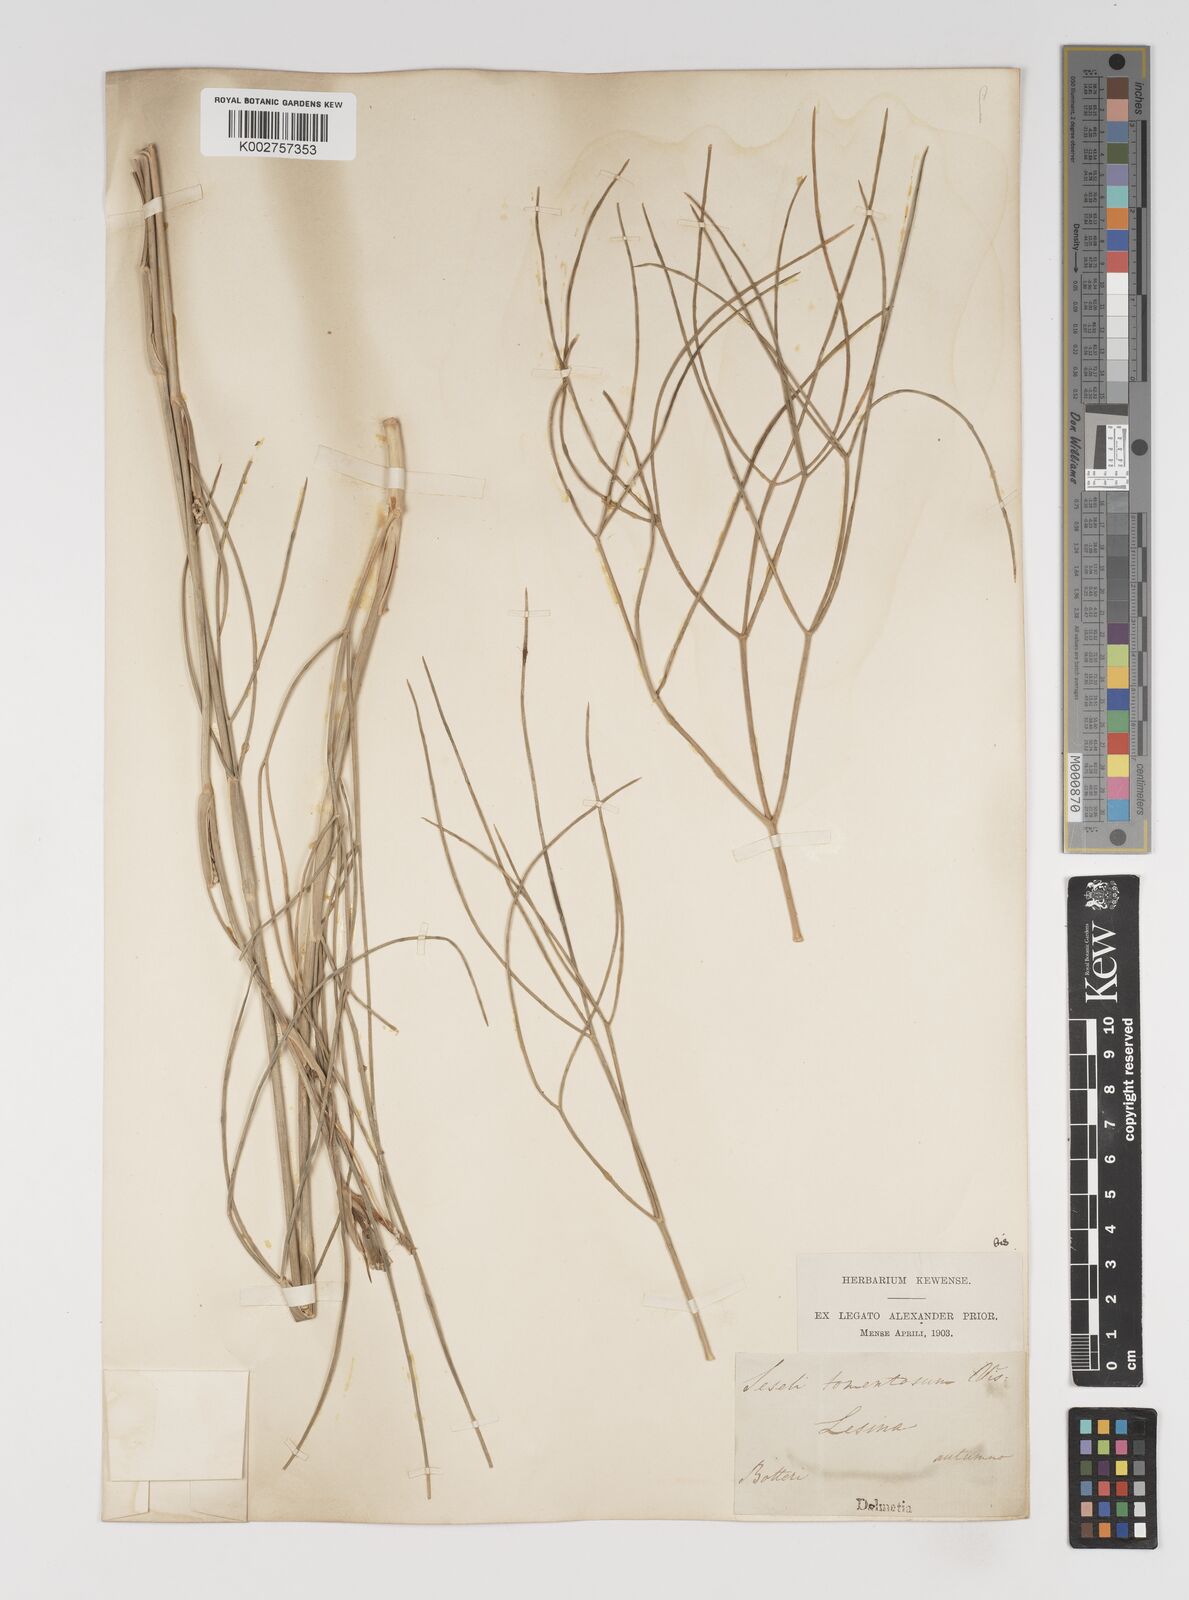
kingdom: Plantae
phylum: Tracheophyta
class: Magnoliopsida
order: Apiales
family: Apiaceae
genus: Cyathoselinum
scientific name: Cyathoselinum tomentosum
